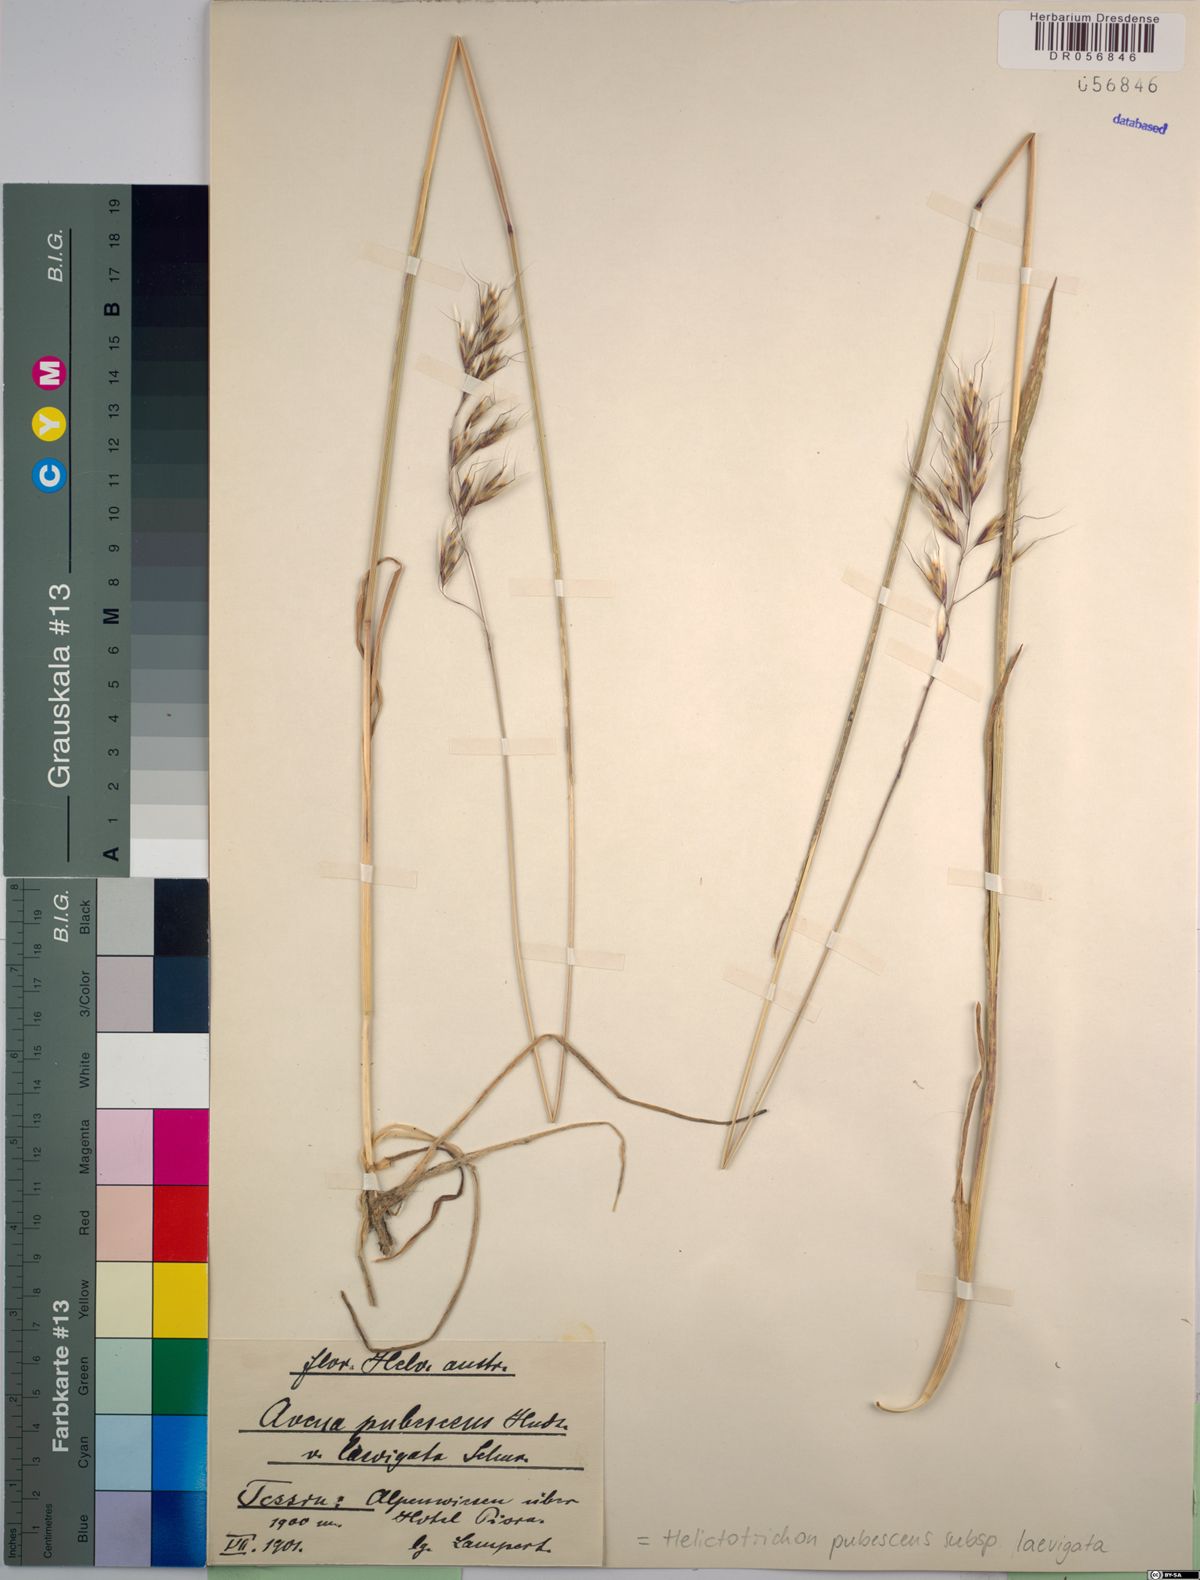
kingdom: Plantae
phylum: Tracheophyta
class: Liliopsida
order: Poales
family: Poaceae
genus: Avenula
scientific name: Avenula pubescens
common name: Downy alpine oatgrass
